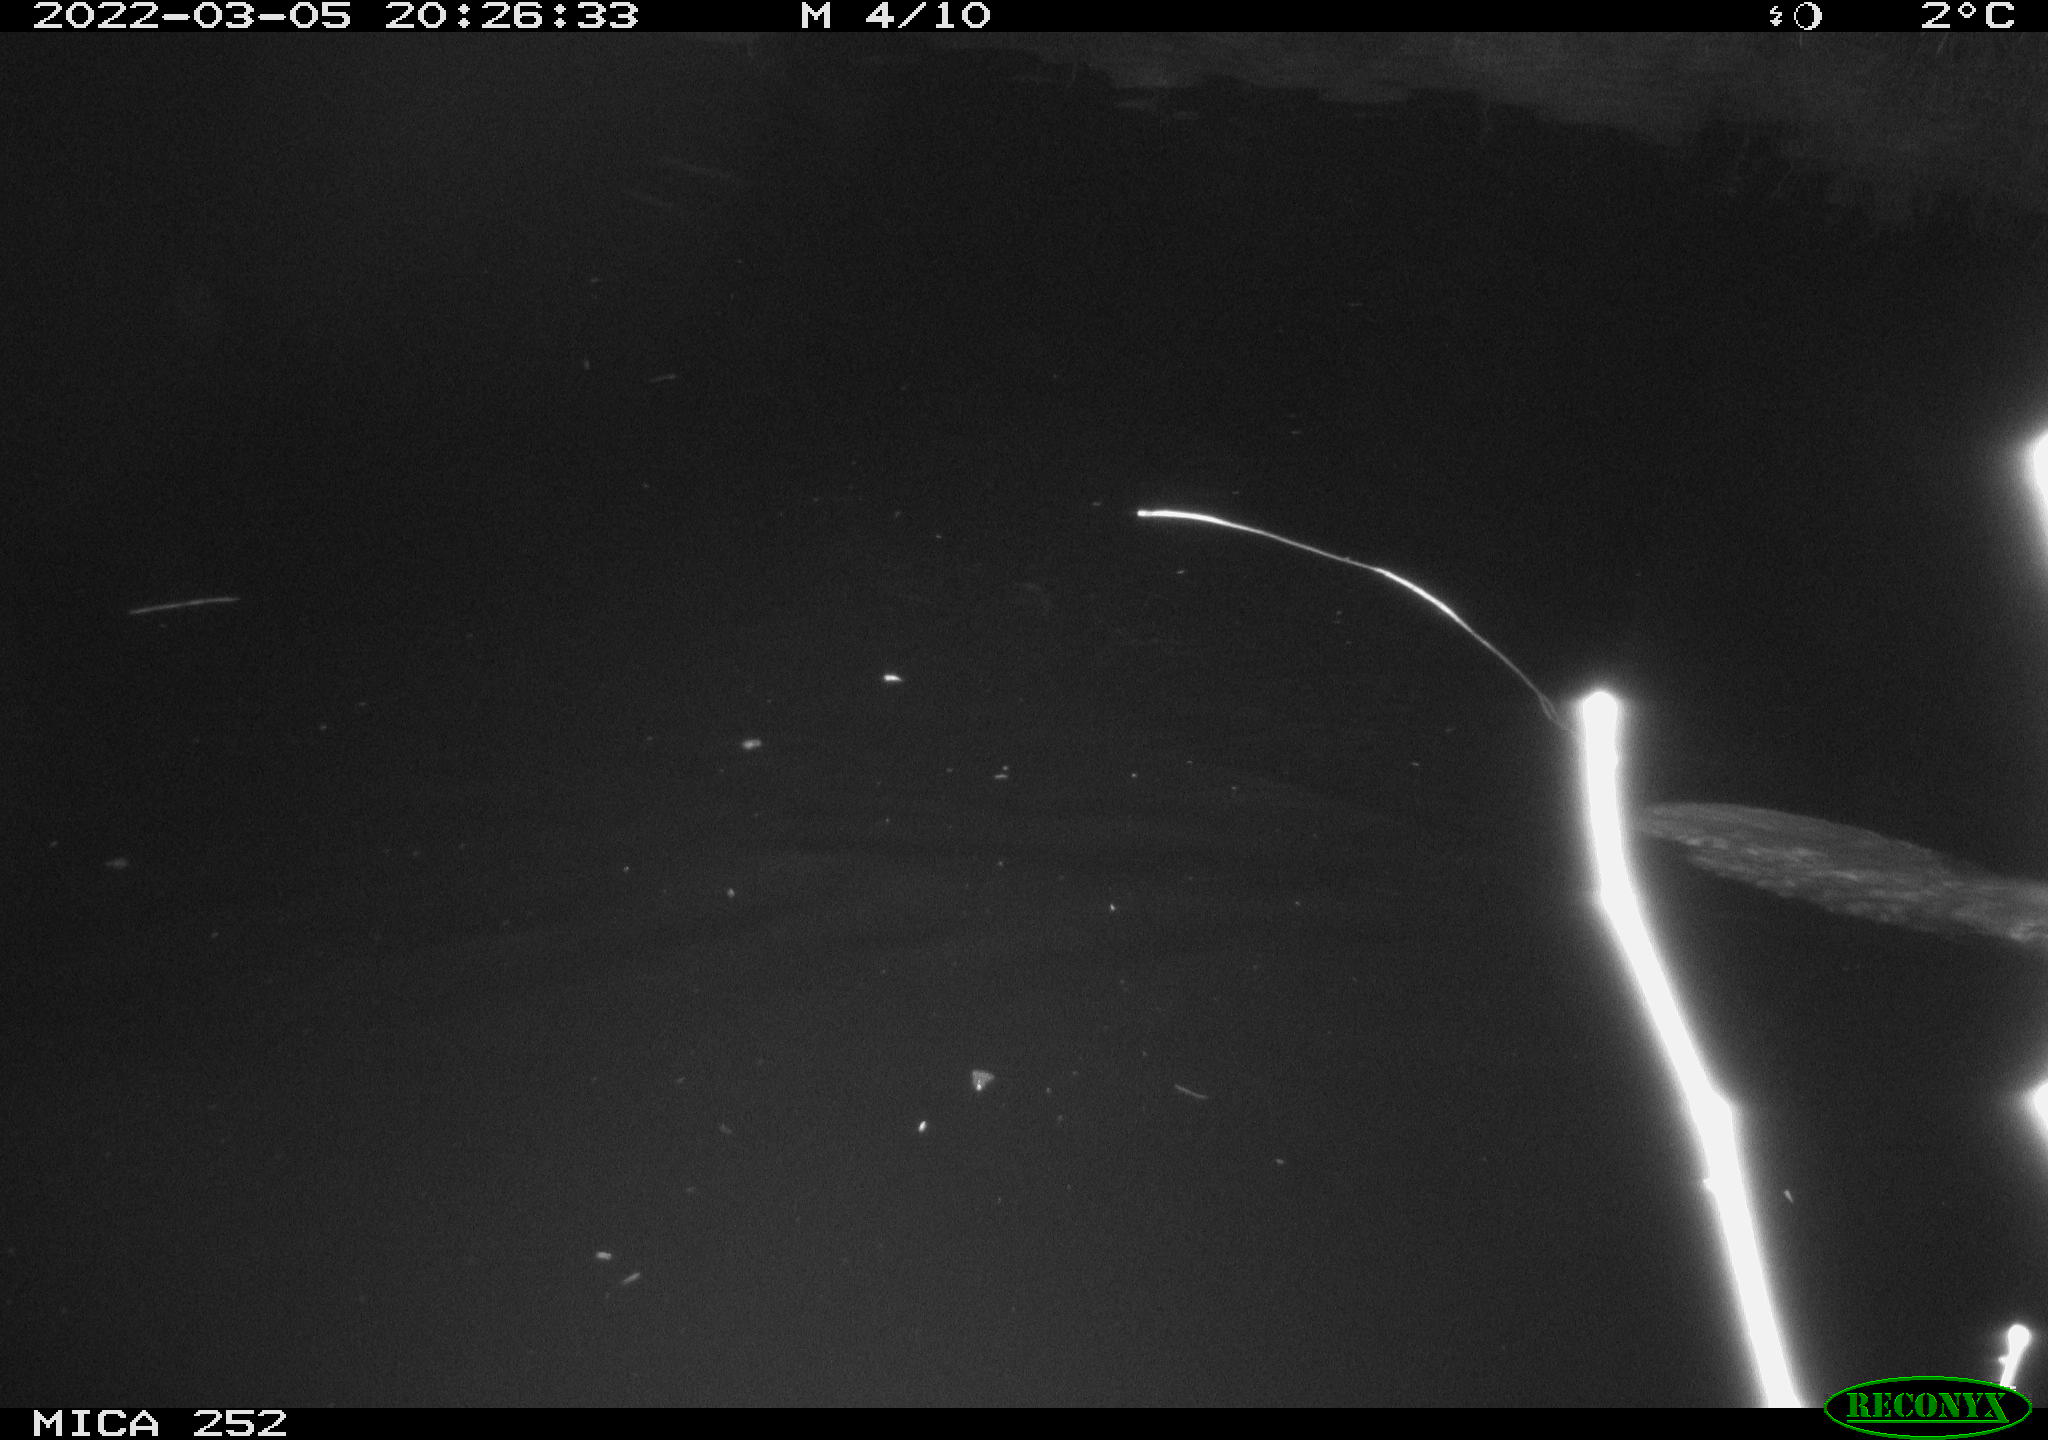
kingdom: Animalia
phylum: Chordata
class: Mammalia
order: Rodentia
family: Castoridae
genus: Castor
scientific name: Castor fiber
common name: Eurasian beaver
